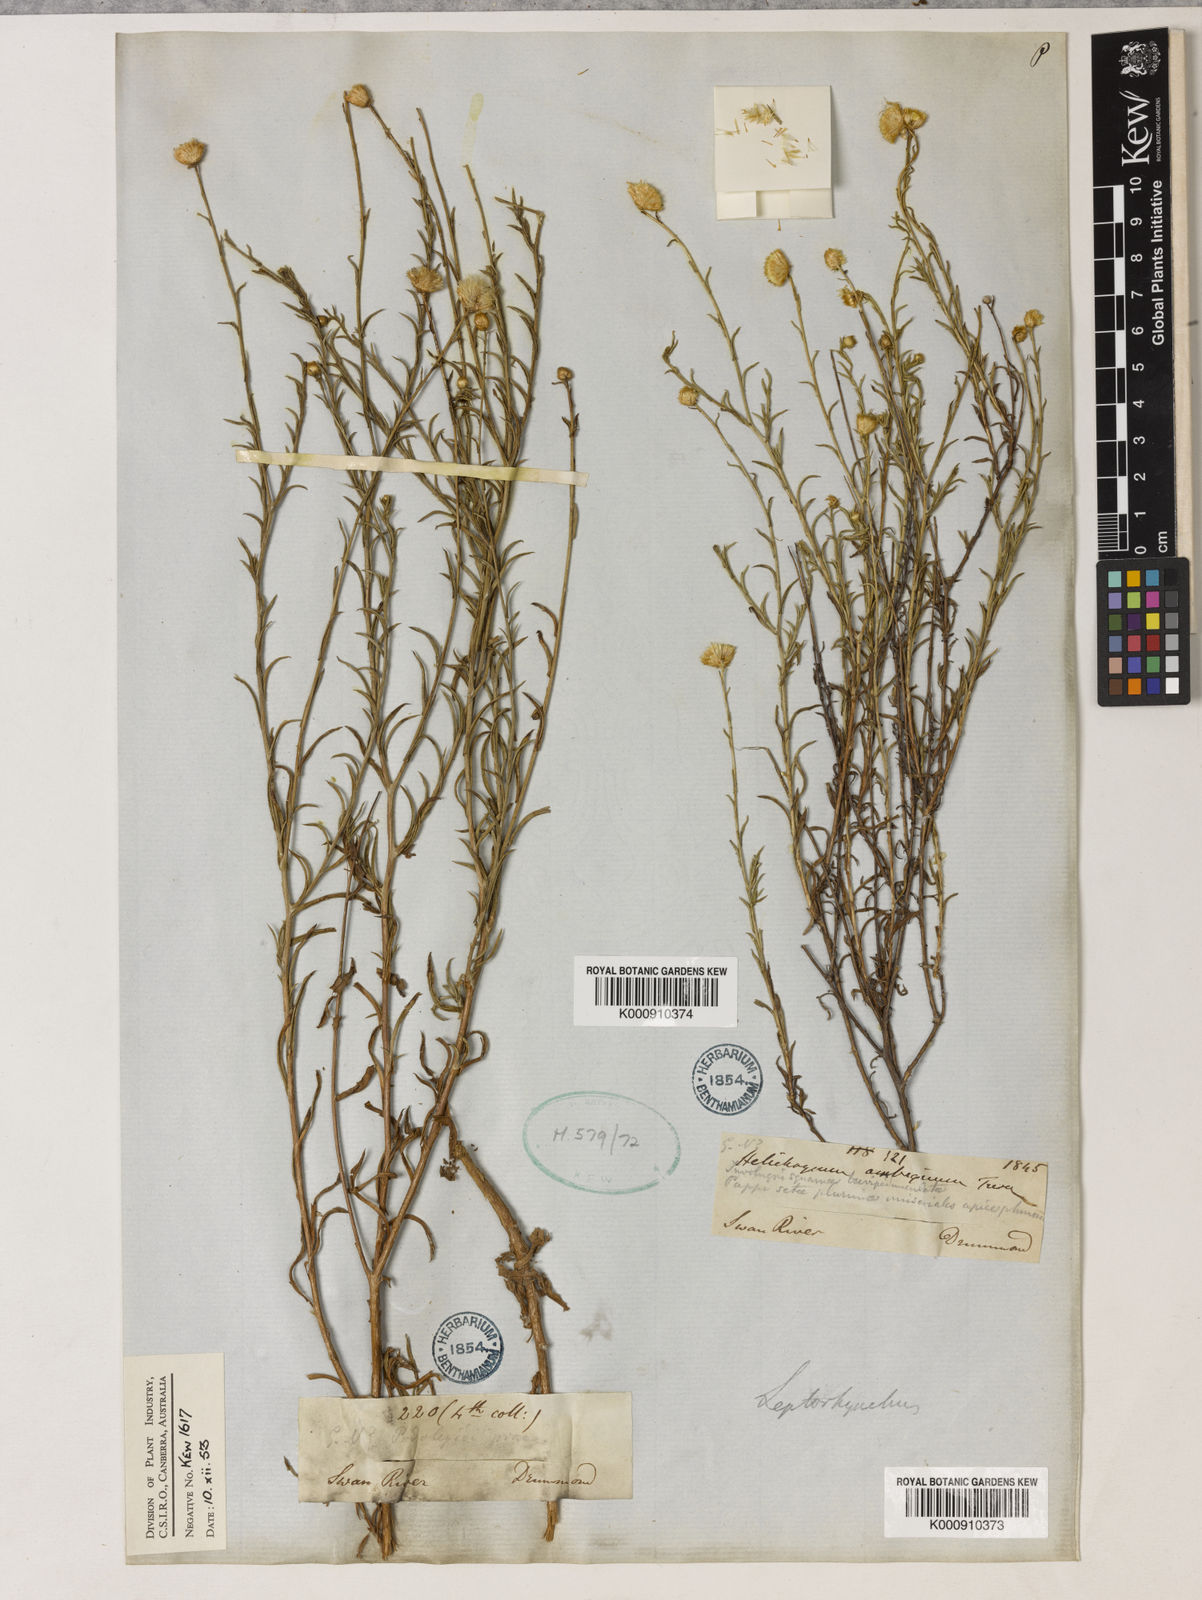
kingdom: Plantae
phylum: Tracheophyta
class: Magnoliopsida
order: Asterales
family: Asteraceae
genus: Leiocarpa
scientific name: Leiocarpa semicalva
